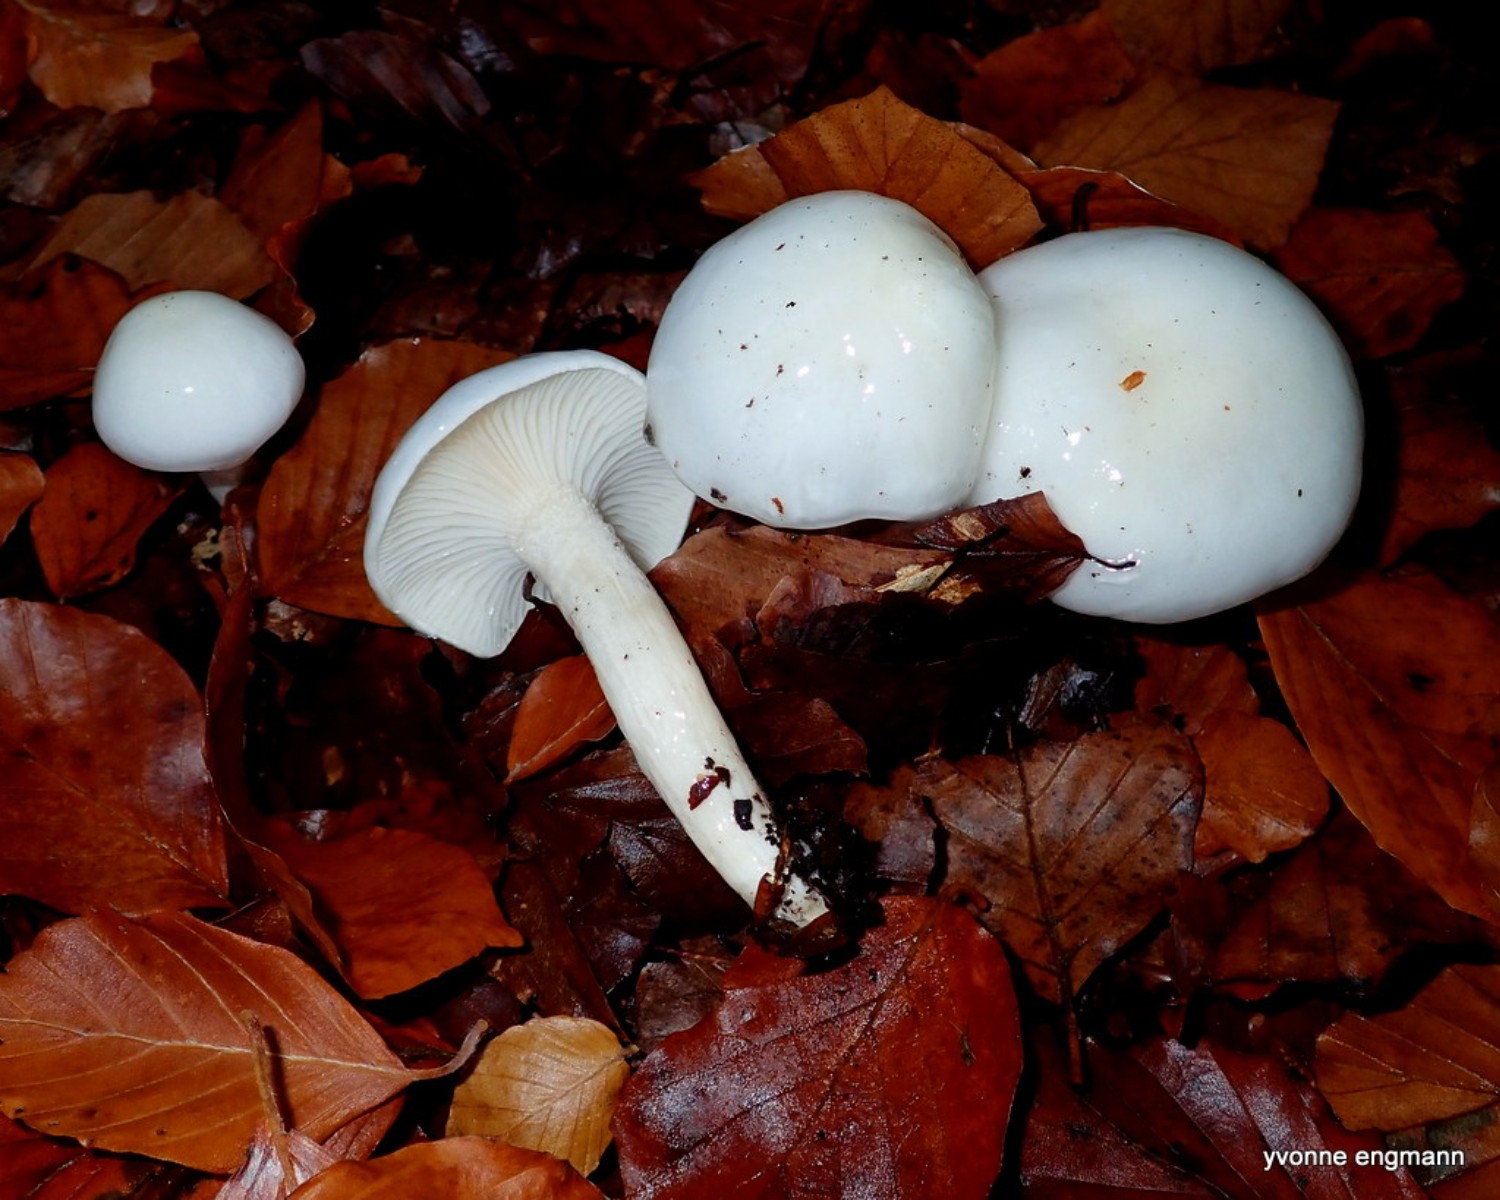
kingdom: Fungi
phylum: Basidiomycota
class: Agaricomycetes
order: Agaricales
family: Hygrophoraceae
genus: Hygrophorus
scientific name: Hygrophorus eburneus
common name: elfenbens-sneglehat
